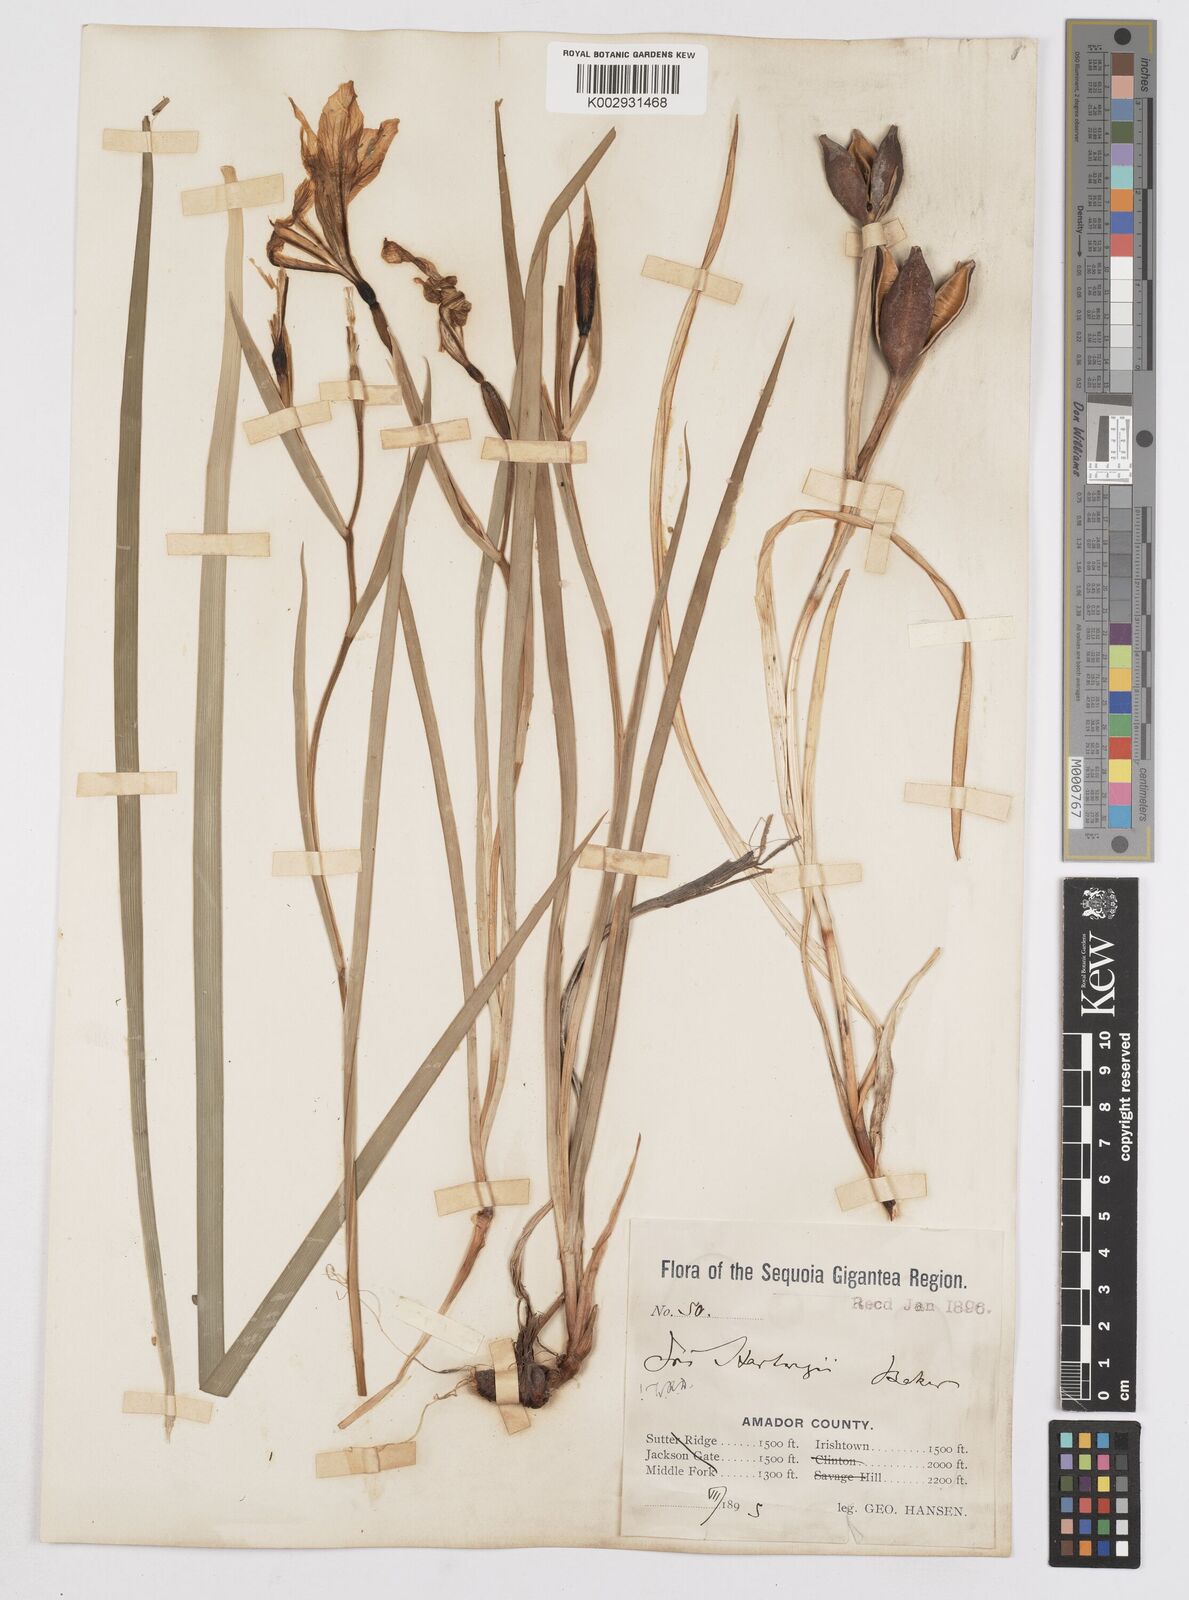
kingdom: Plantae
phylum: Tracheophyta
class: Liliopsida
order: Asparagales
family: Iridaceae
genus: Iris
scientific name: Iris hartwegii
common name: Sierra iris
